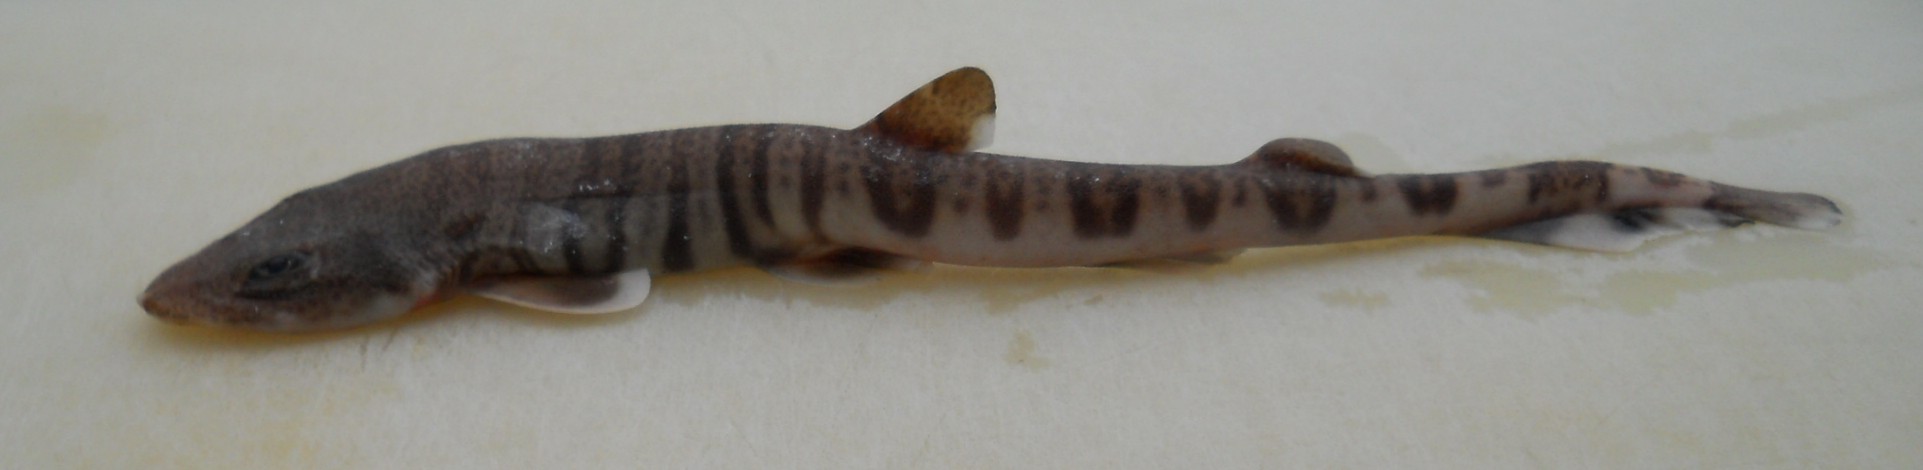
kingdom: Animalia
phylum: Chordata
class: Elasmobranchii
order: Carcharhiniformes
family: Scyliorhinidae
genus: Halaelurus
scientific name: Halaelurus lineatus
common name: Lined catshark
